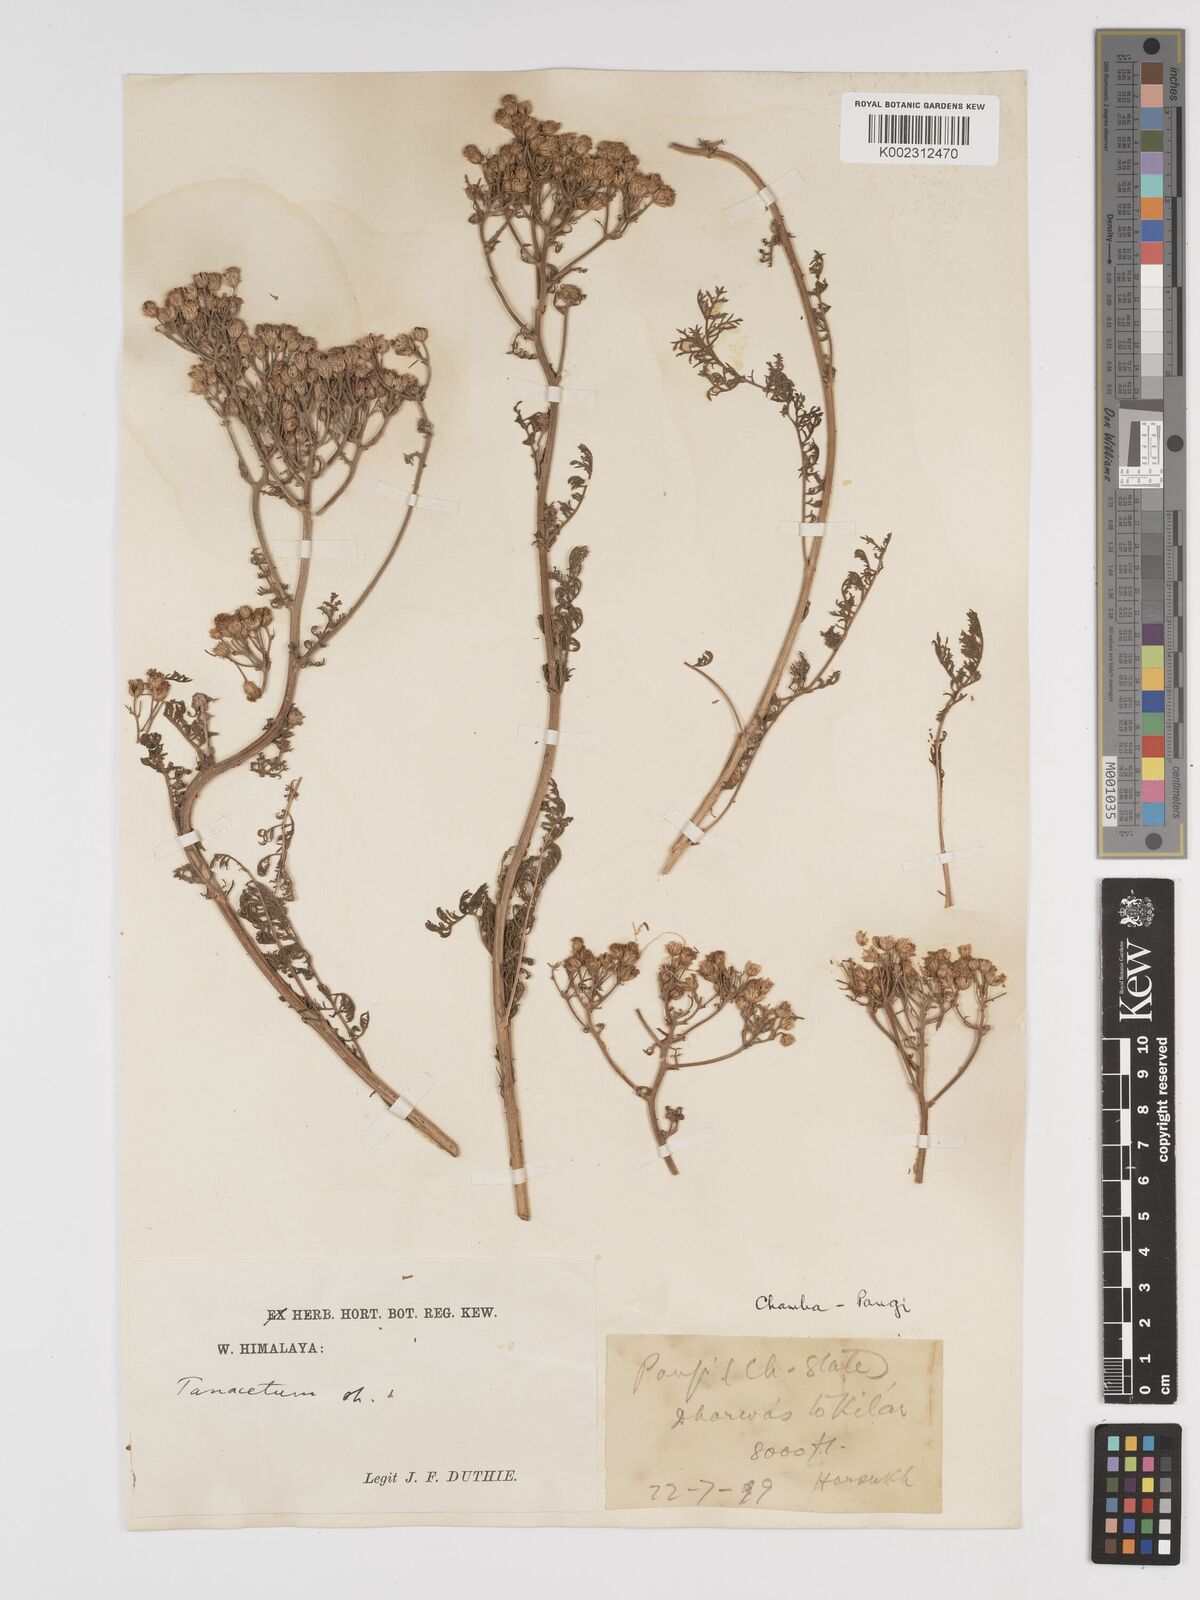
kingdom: Plantae
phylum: Tracheophyta
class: Magnoliopsida
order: Asterales
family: Asteraceae
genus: Tanacetum
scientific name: Tanacetum
